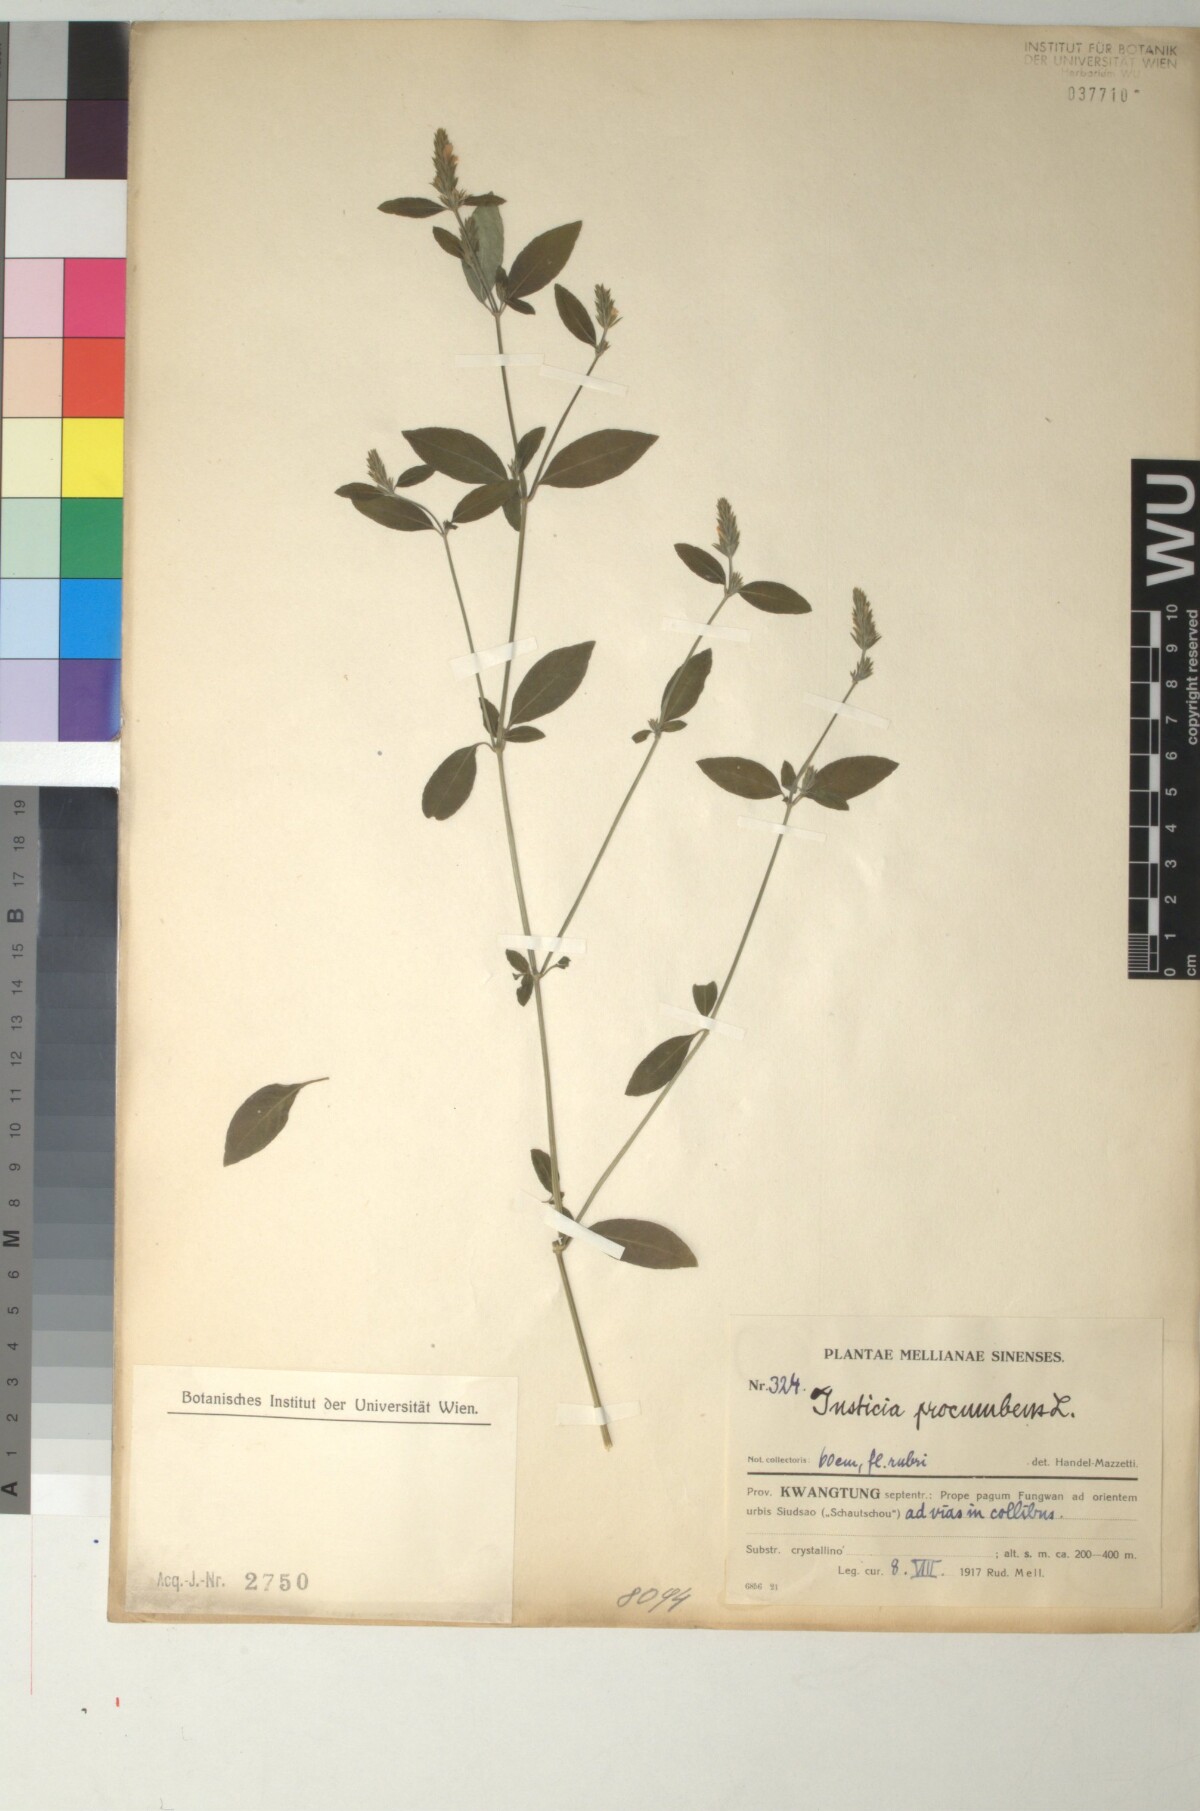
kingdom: Plantae
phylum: Tracheophyta
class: Magnoliopsida
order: Lamiales
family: Acanthaceae
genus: Rostellularia
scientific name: Rostellularia procumbens
